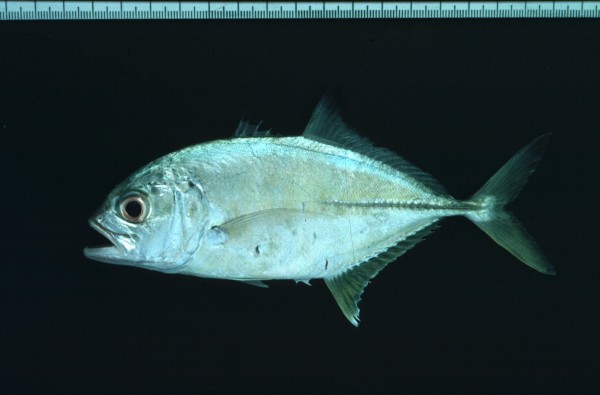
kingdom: Animalia
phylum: Chordata
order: Perciformes
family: Carangidae
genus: Caranx
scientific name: Caranx sexfasciatus
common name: Bigeye trevally
